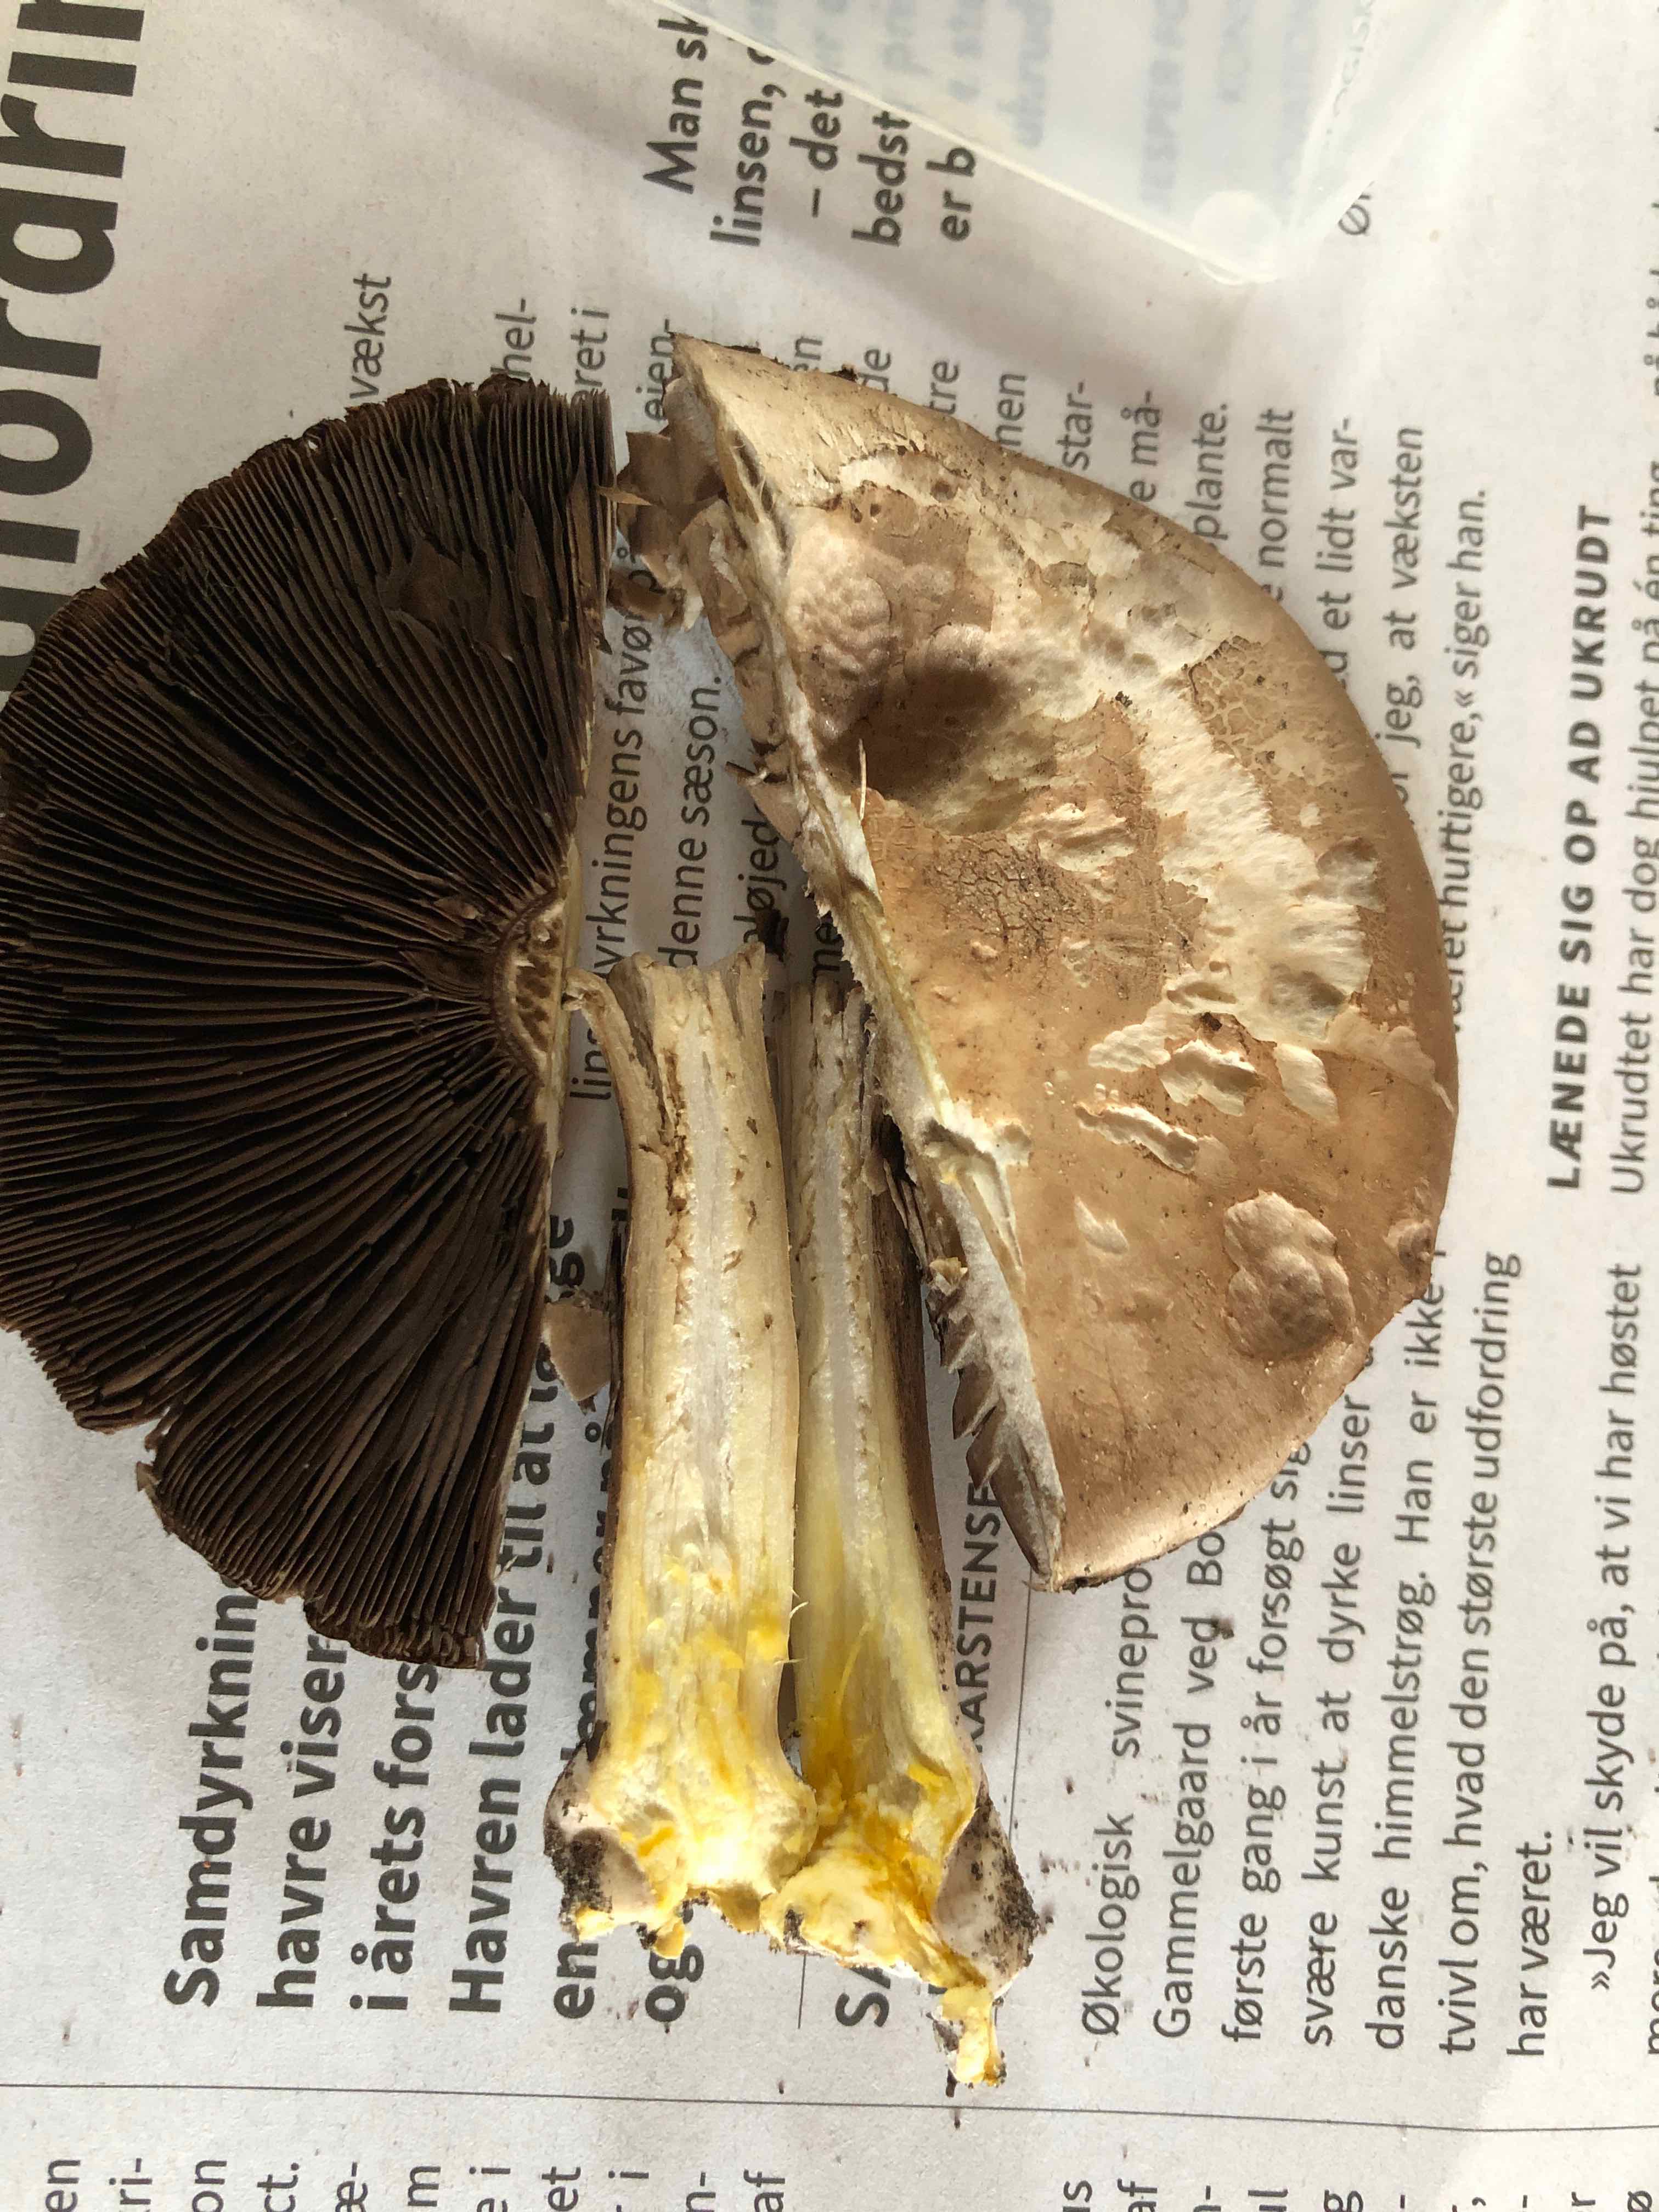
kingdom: Fungi
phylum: Basidiomycota
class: Agaricomycetes
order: Agaricales
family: Agaricaceae
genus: Agaricus
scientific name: Agaricus xanthodermus
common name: karbol-champignon
